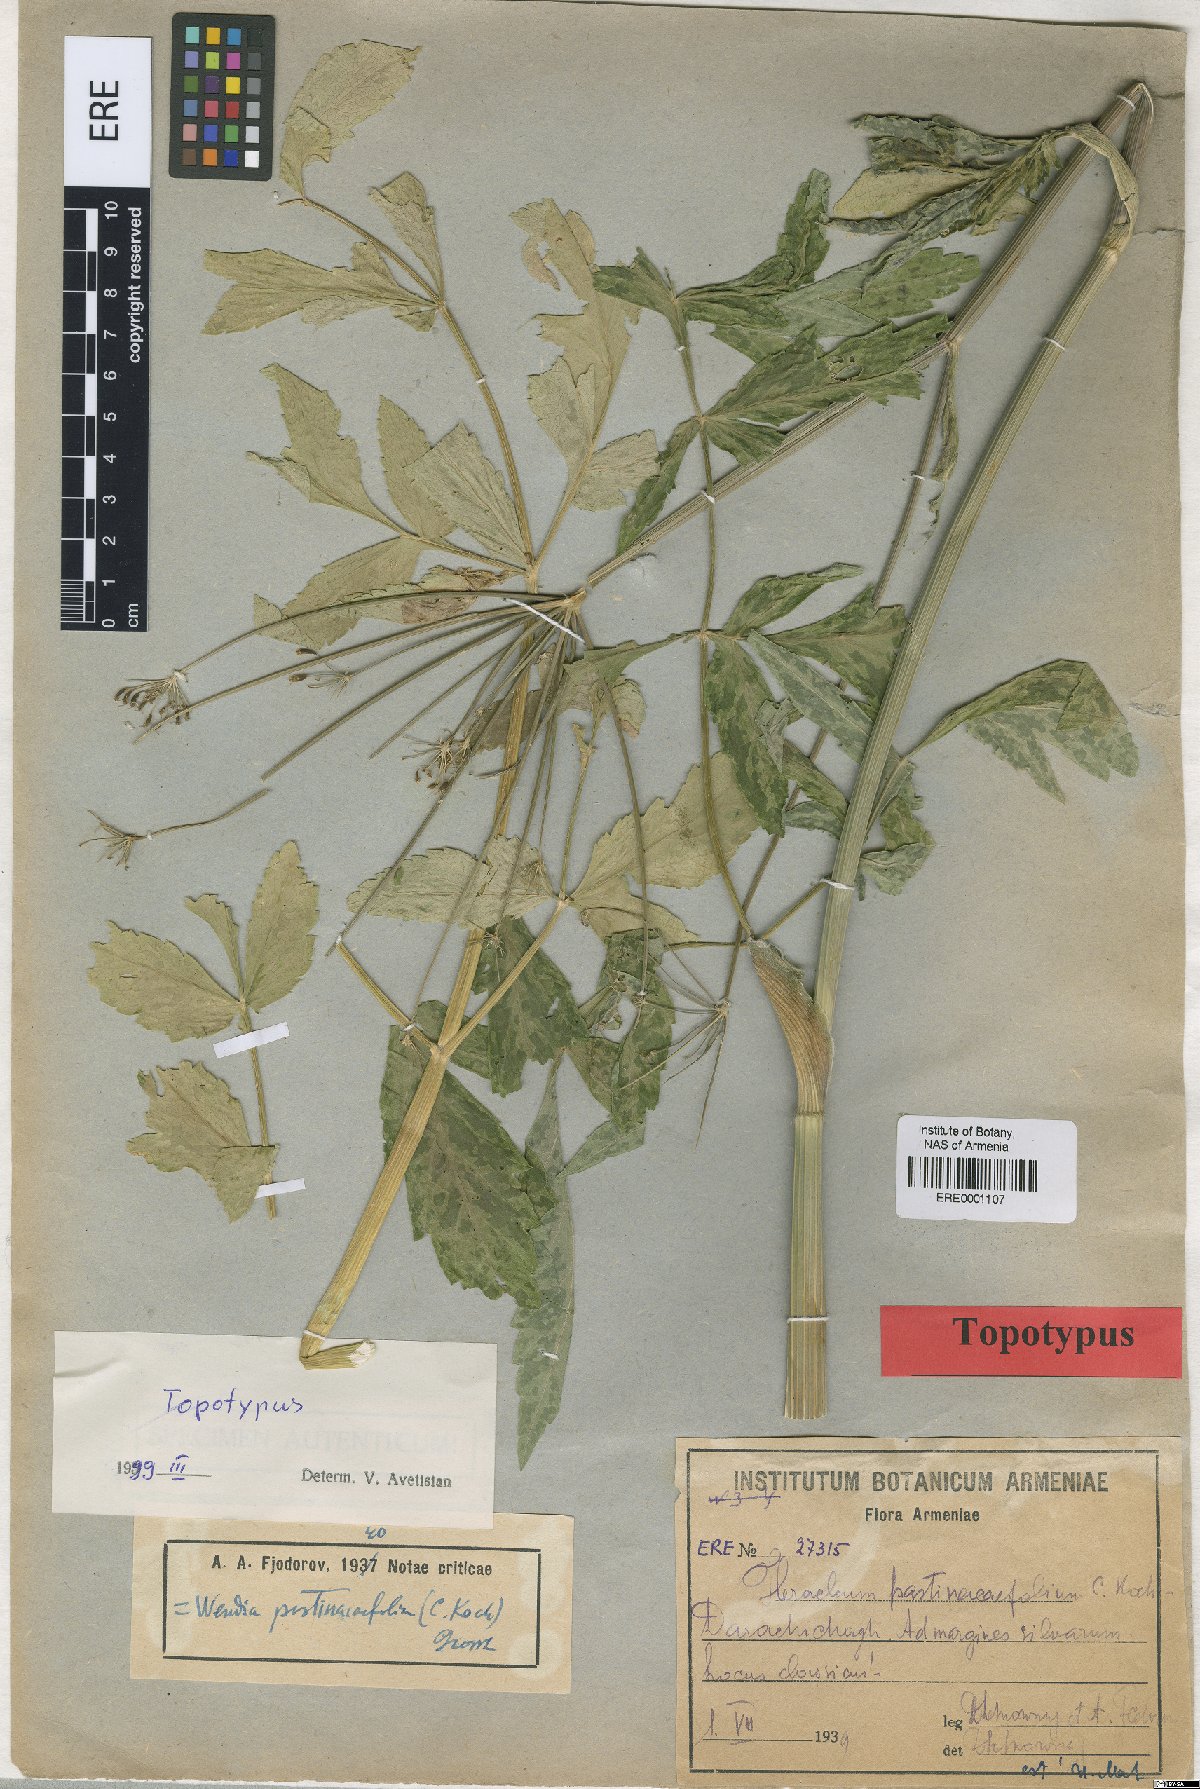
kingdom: Plantae
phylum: Tracheophyta
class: Magnoliopsida
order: Apiales
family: Apiaceae
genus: Heracleum
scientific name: Heracleum pastinacifolium
